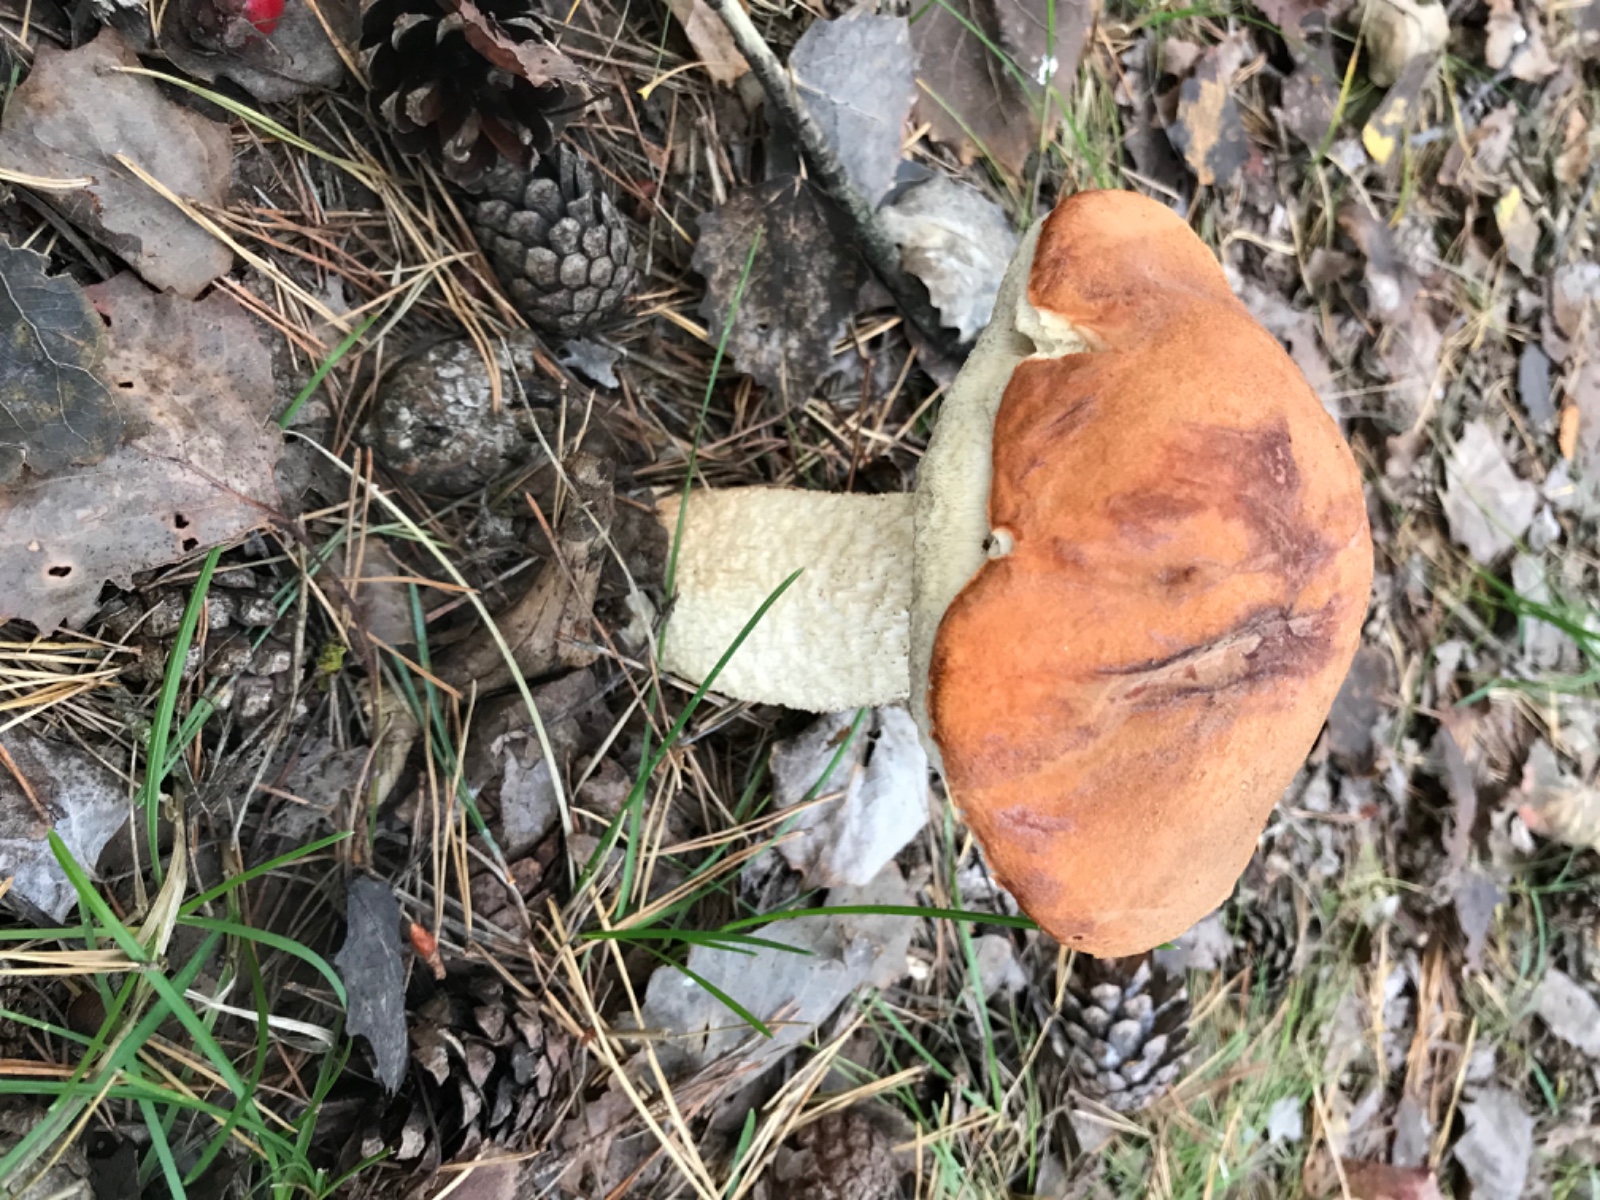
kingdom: Fungi
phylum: Basidiomycota
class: Agaricomycetes
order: Boletales
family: Boletaceae
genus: Leccinum
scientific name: Leccinum albostipitatum
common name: aspe-skælrørhat
